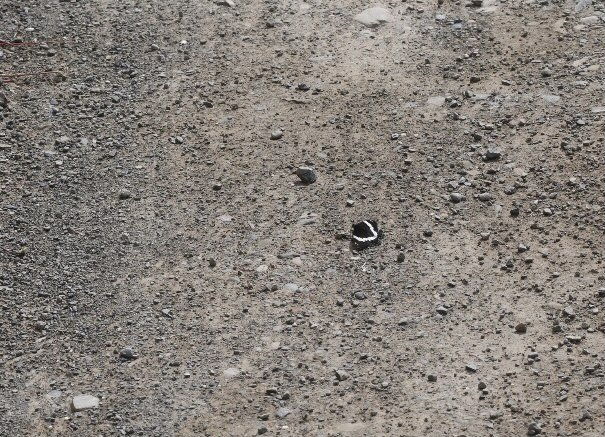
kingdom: Animalia
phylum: Arthropoda
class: Insecta
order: Lepidoptera
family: Nymphalidae
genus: Limenitis
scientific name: Limenitis arthemis
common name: Red-spotted Admiral
